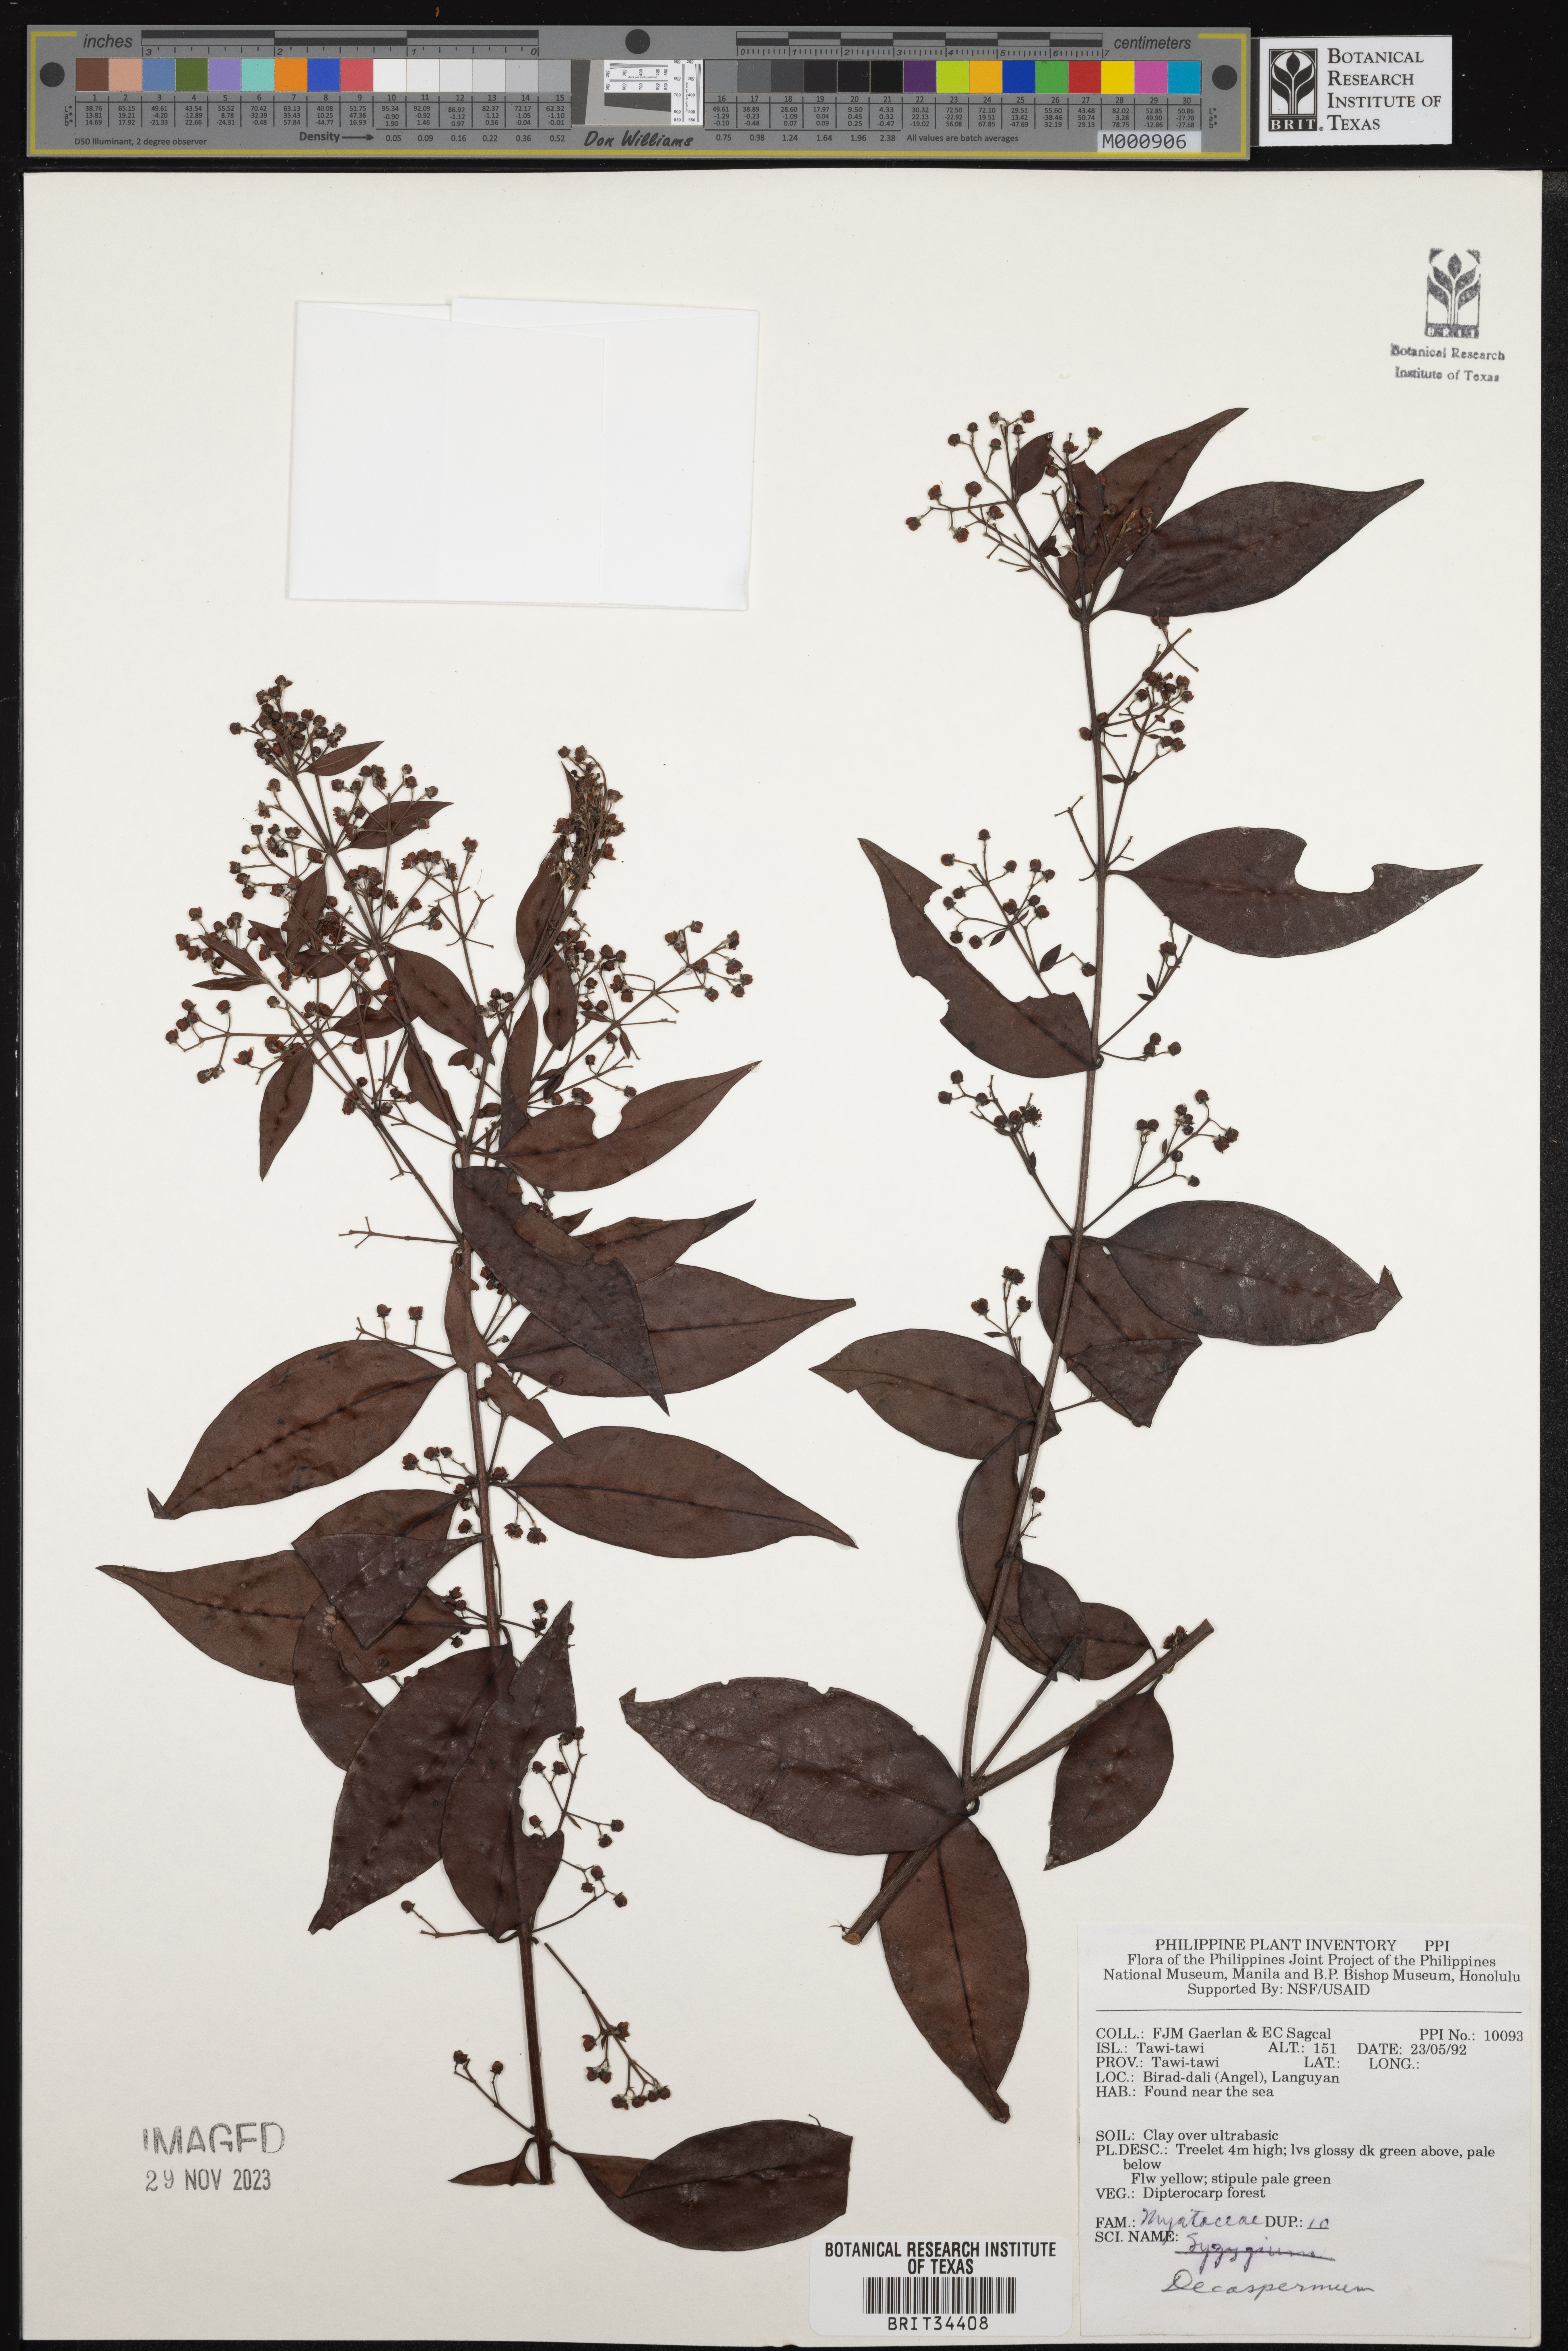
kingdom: Plantae
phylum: Tracheophyta
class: Magnoliopsida
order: Myrtales
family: Myrtaceae
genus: Decaspermum
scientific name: Decaspermum
